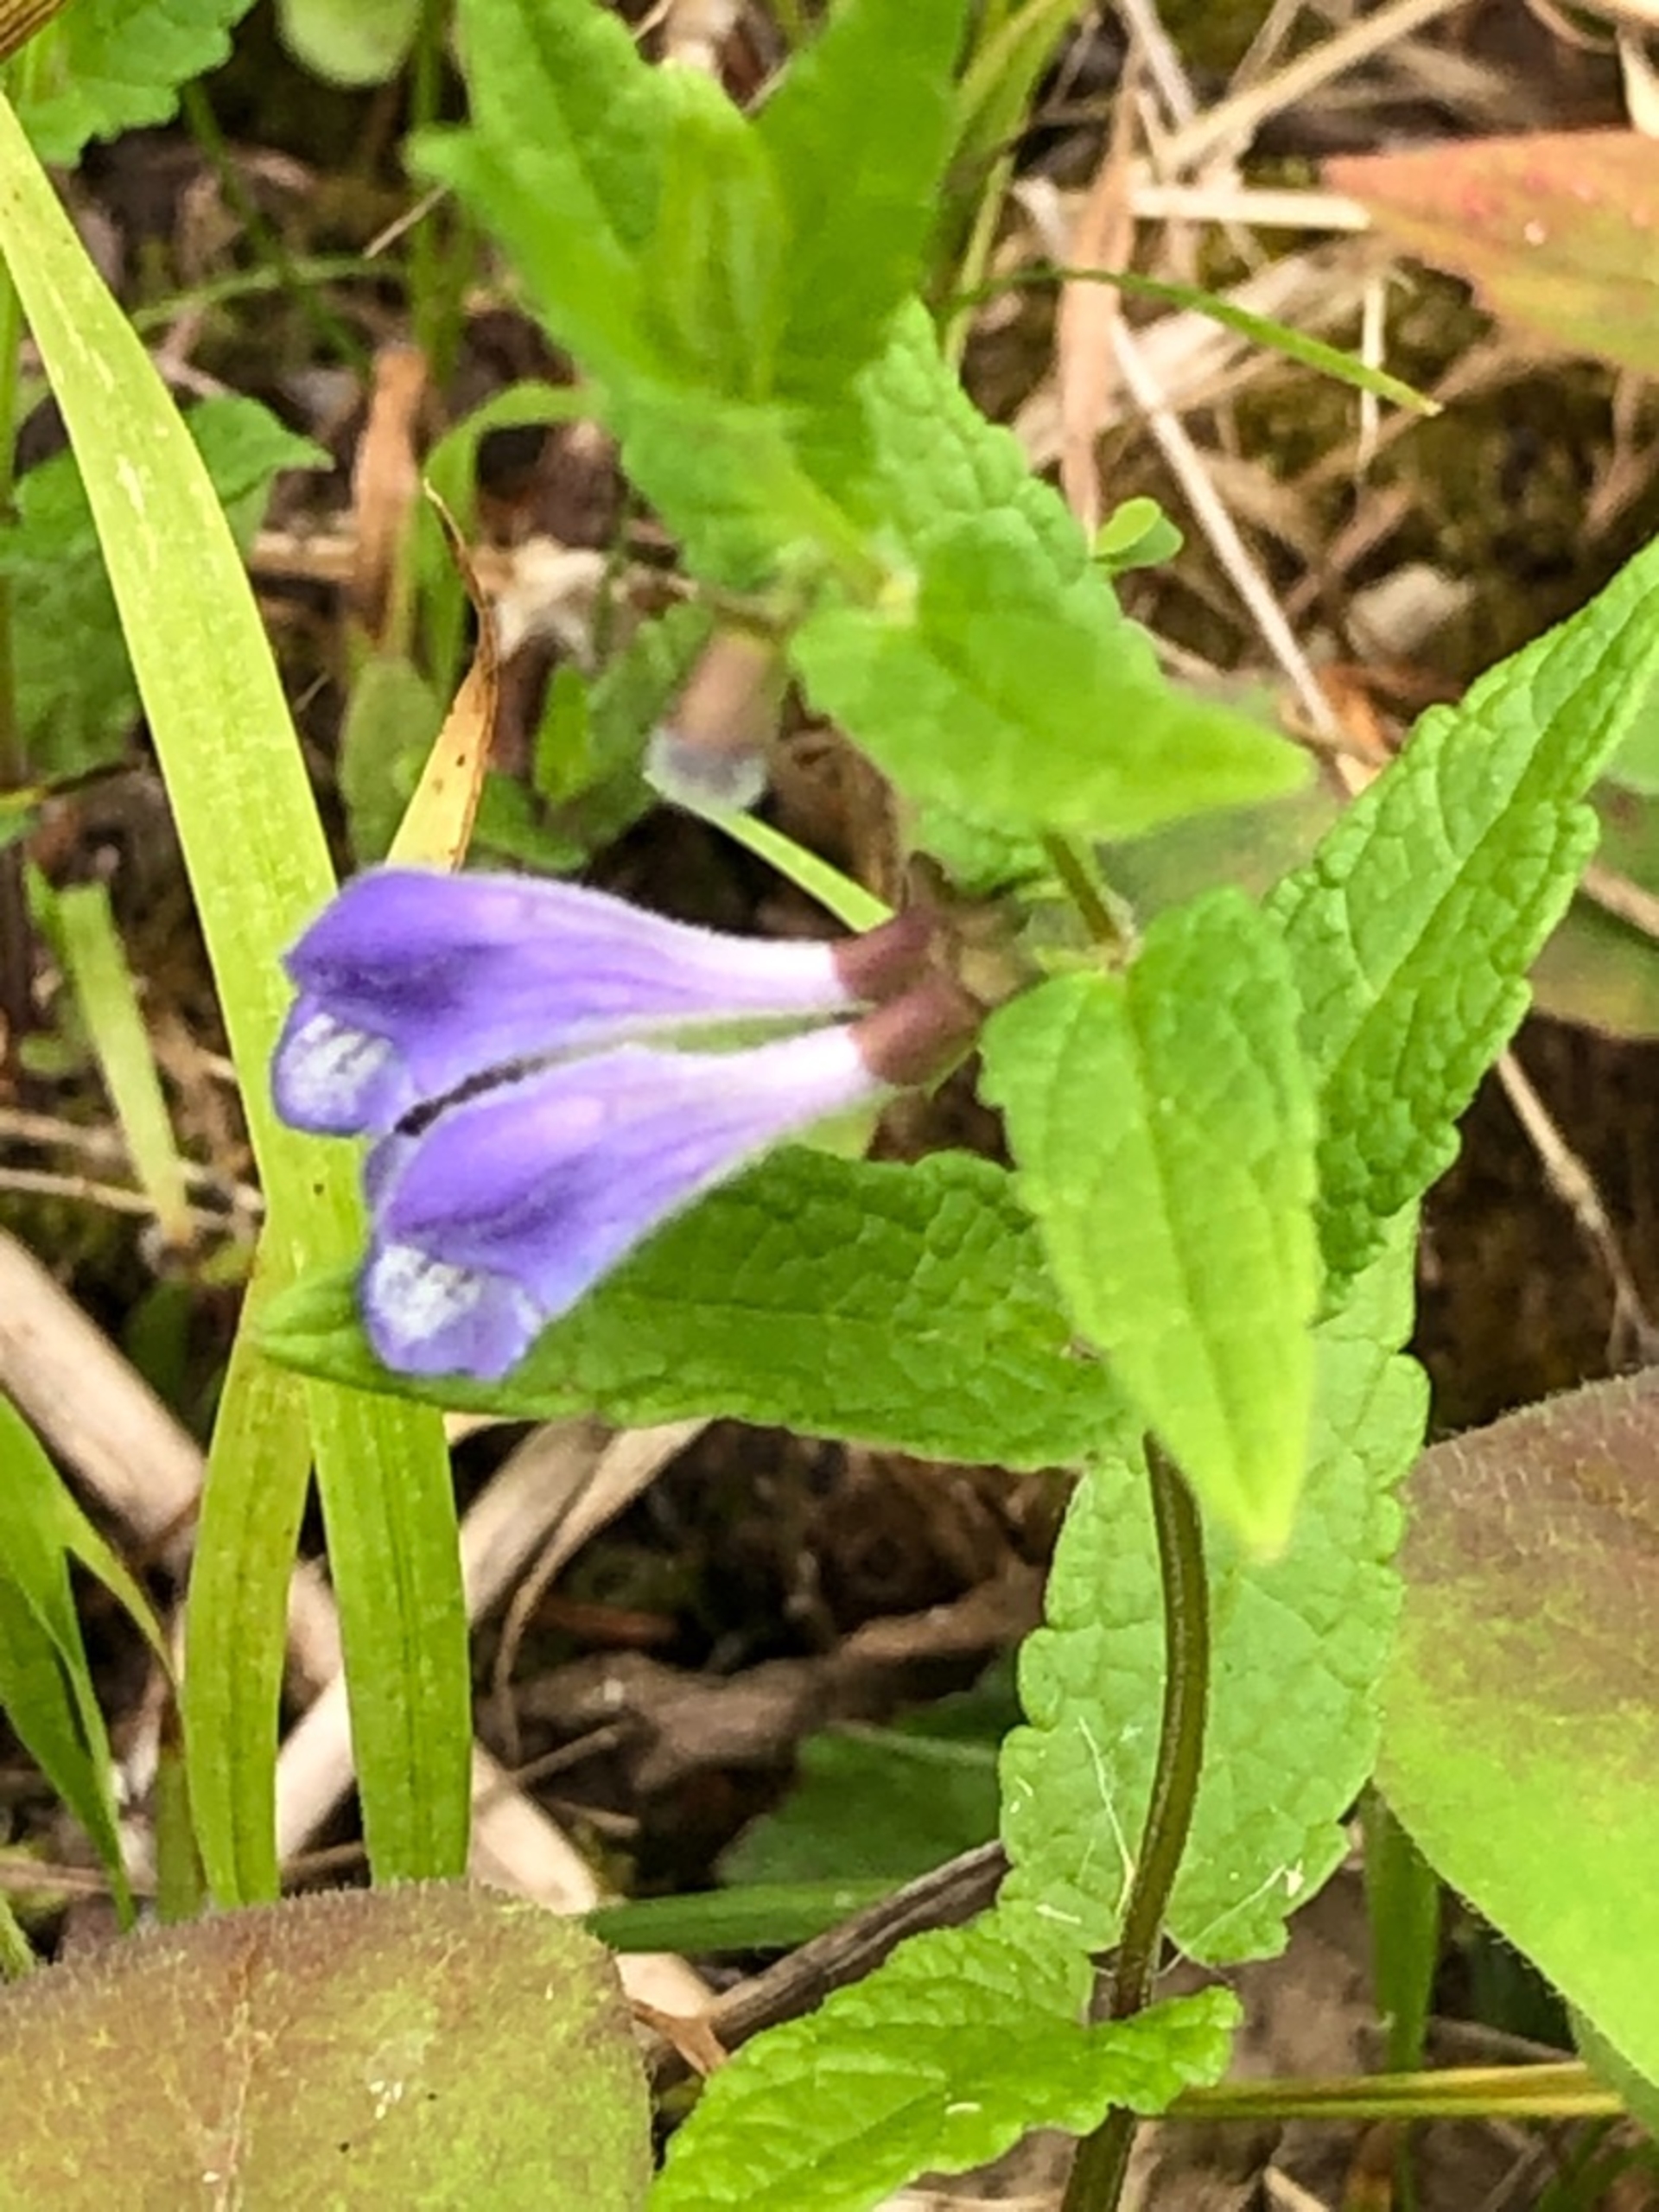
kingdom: Plantae
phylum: Tracheophyta
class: Magnoliopsida
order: Lamiales
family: Lamiaceae
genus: Scutellaria
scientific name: Scutellaria galericulata
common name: Almindelig skjolddrager
